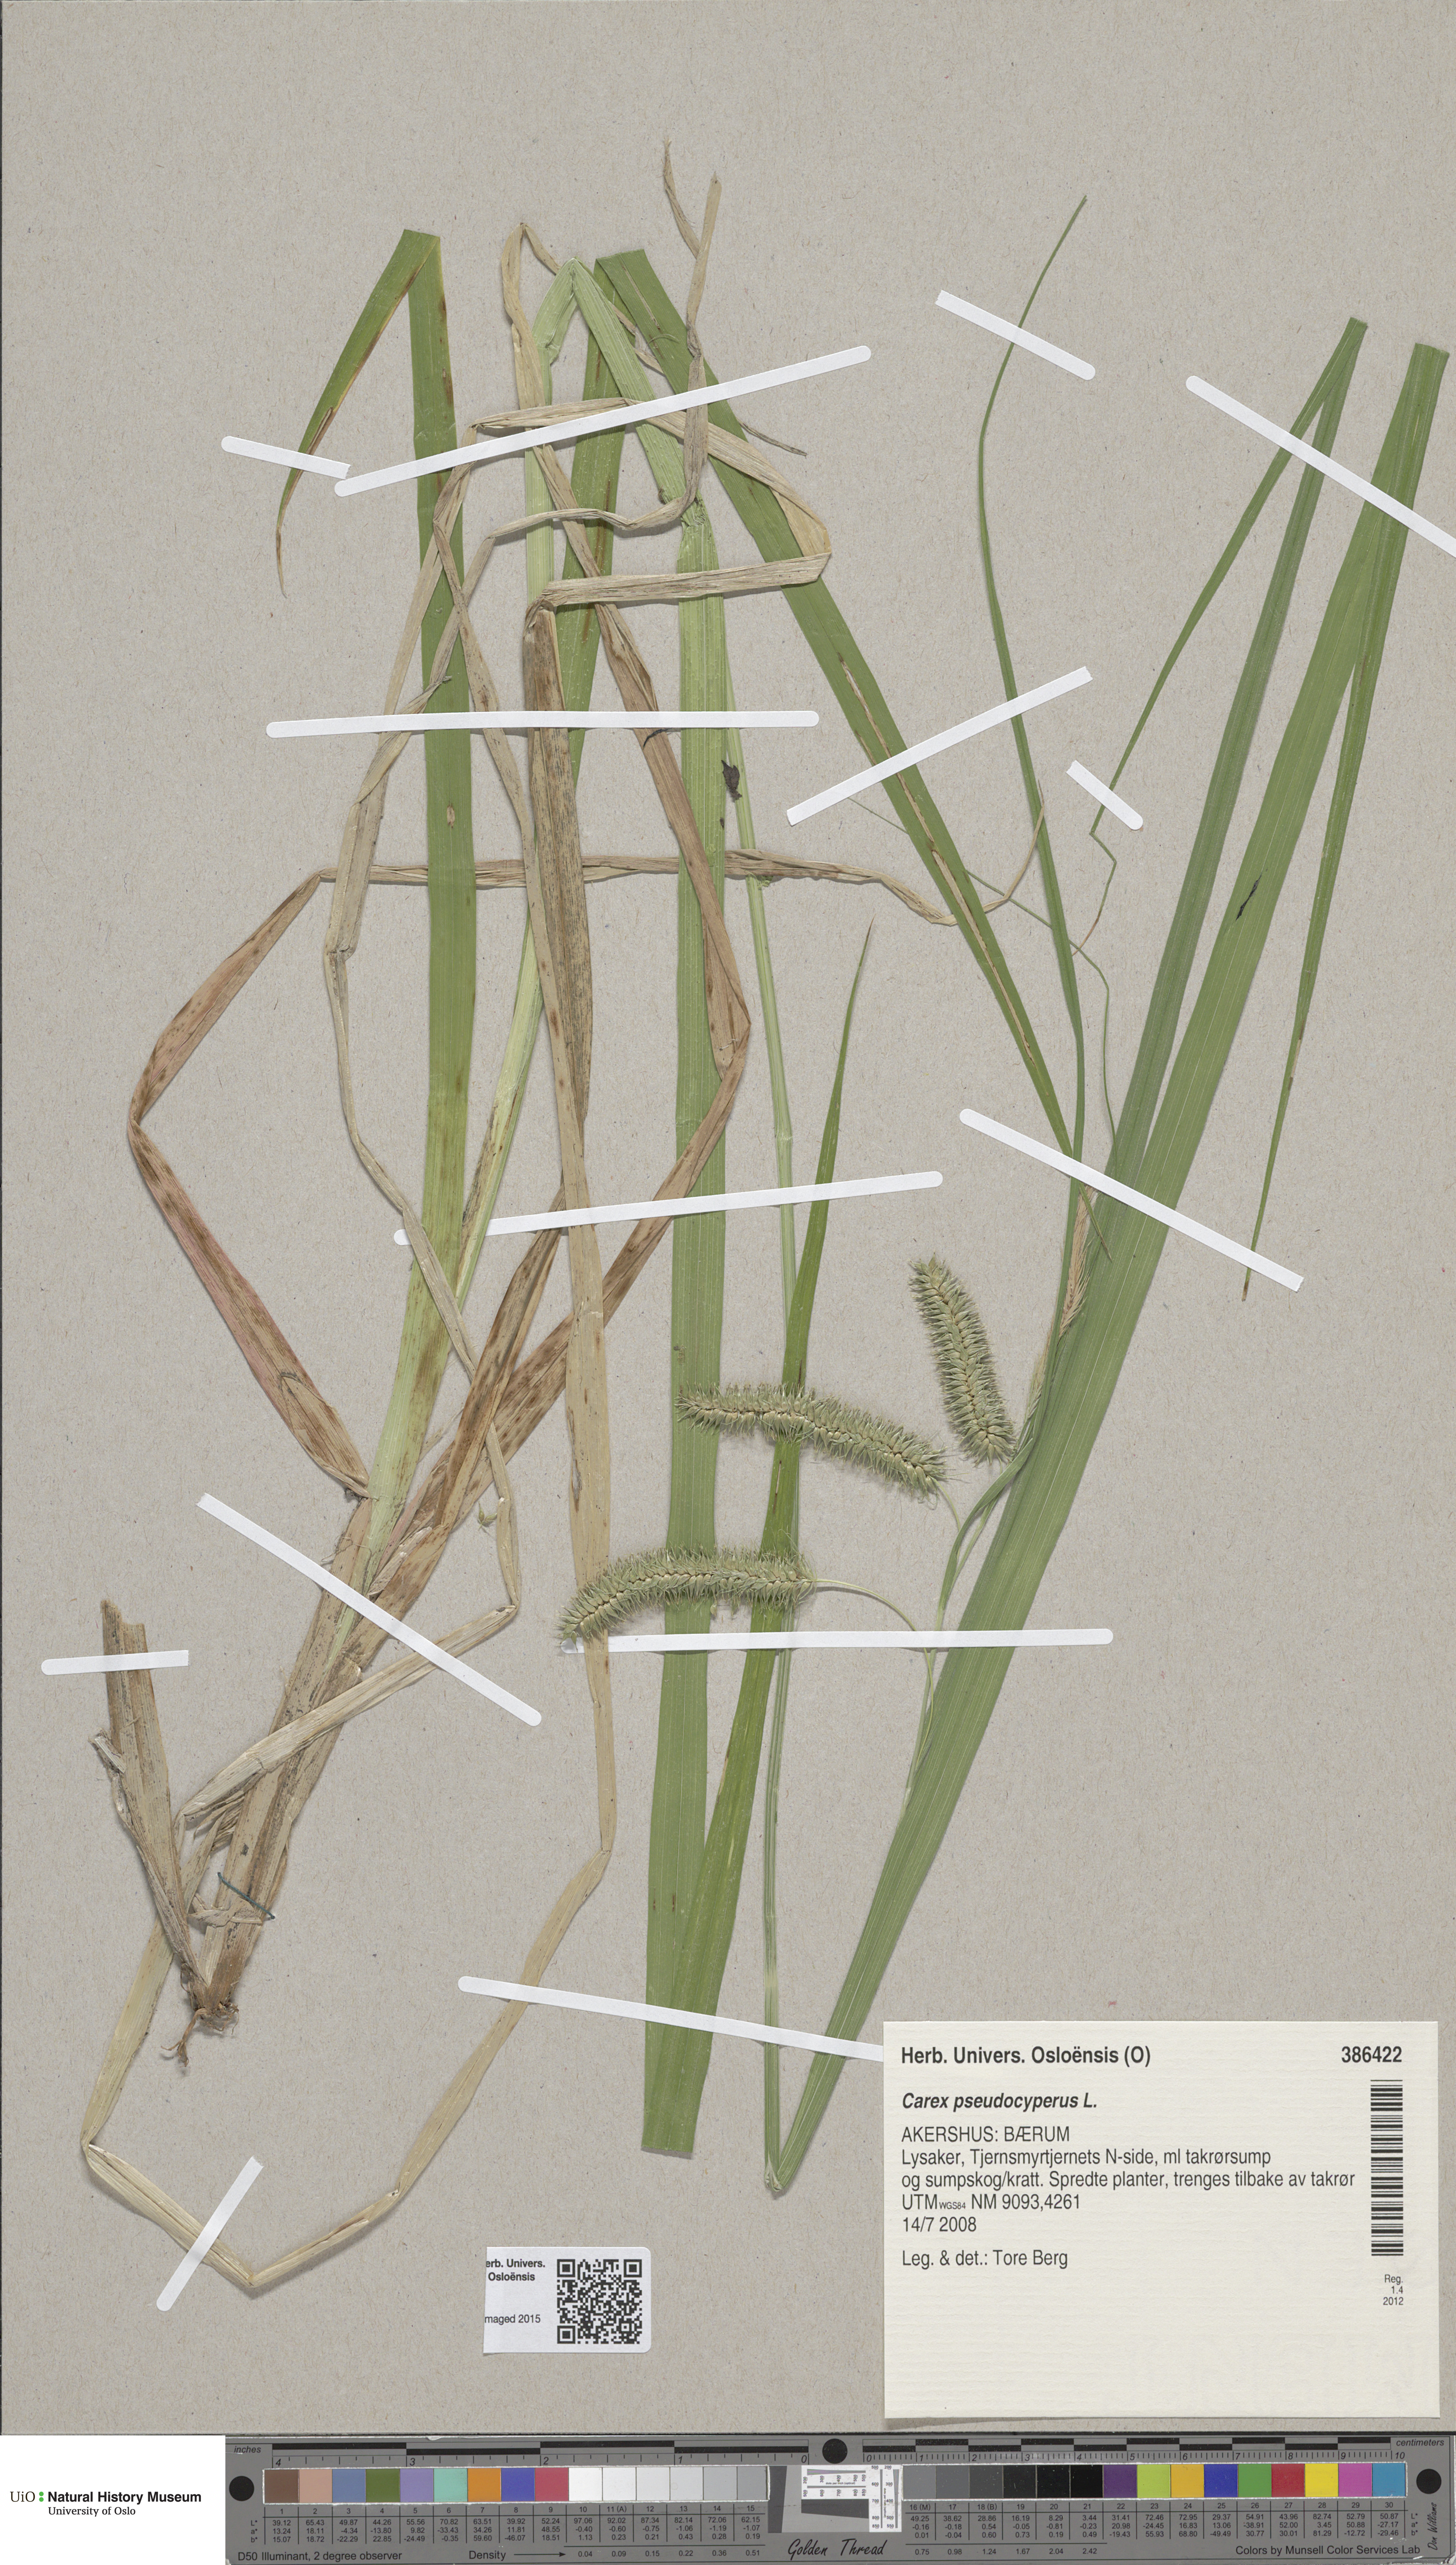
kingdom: Plantae
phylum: Tracheophyta
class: Liliopsida
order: Poales
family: Cyperaceae
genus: Carex
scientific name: Carex pseudocyperus
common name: Cyperus sedge
